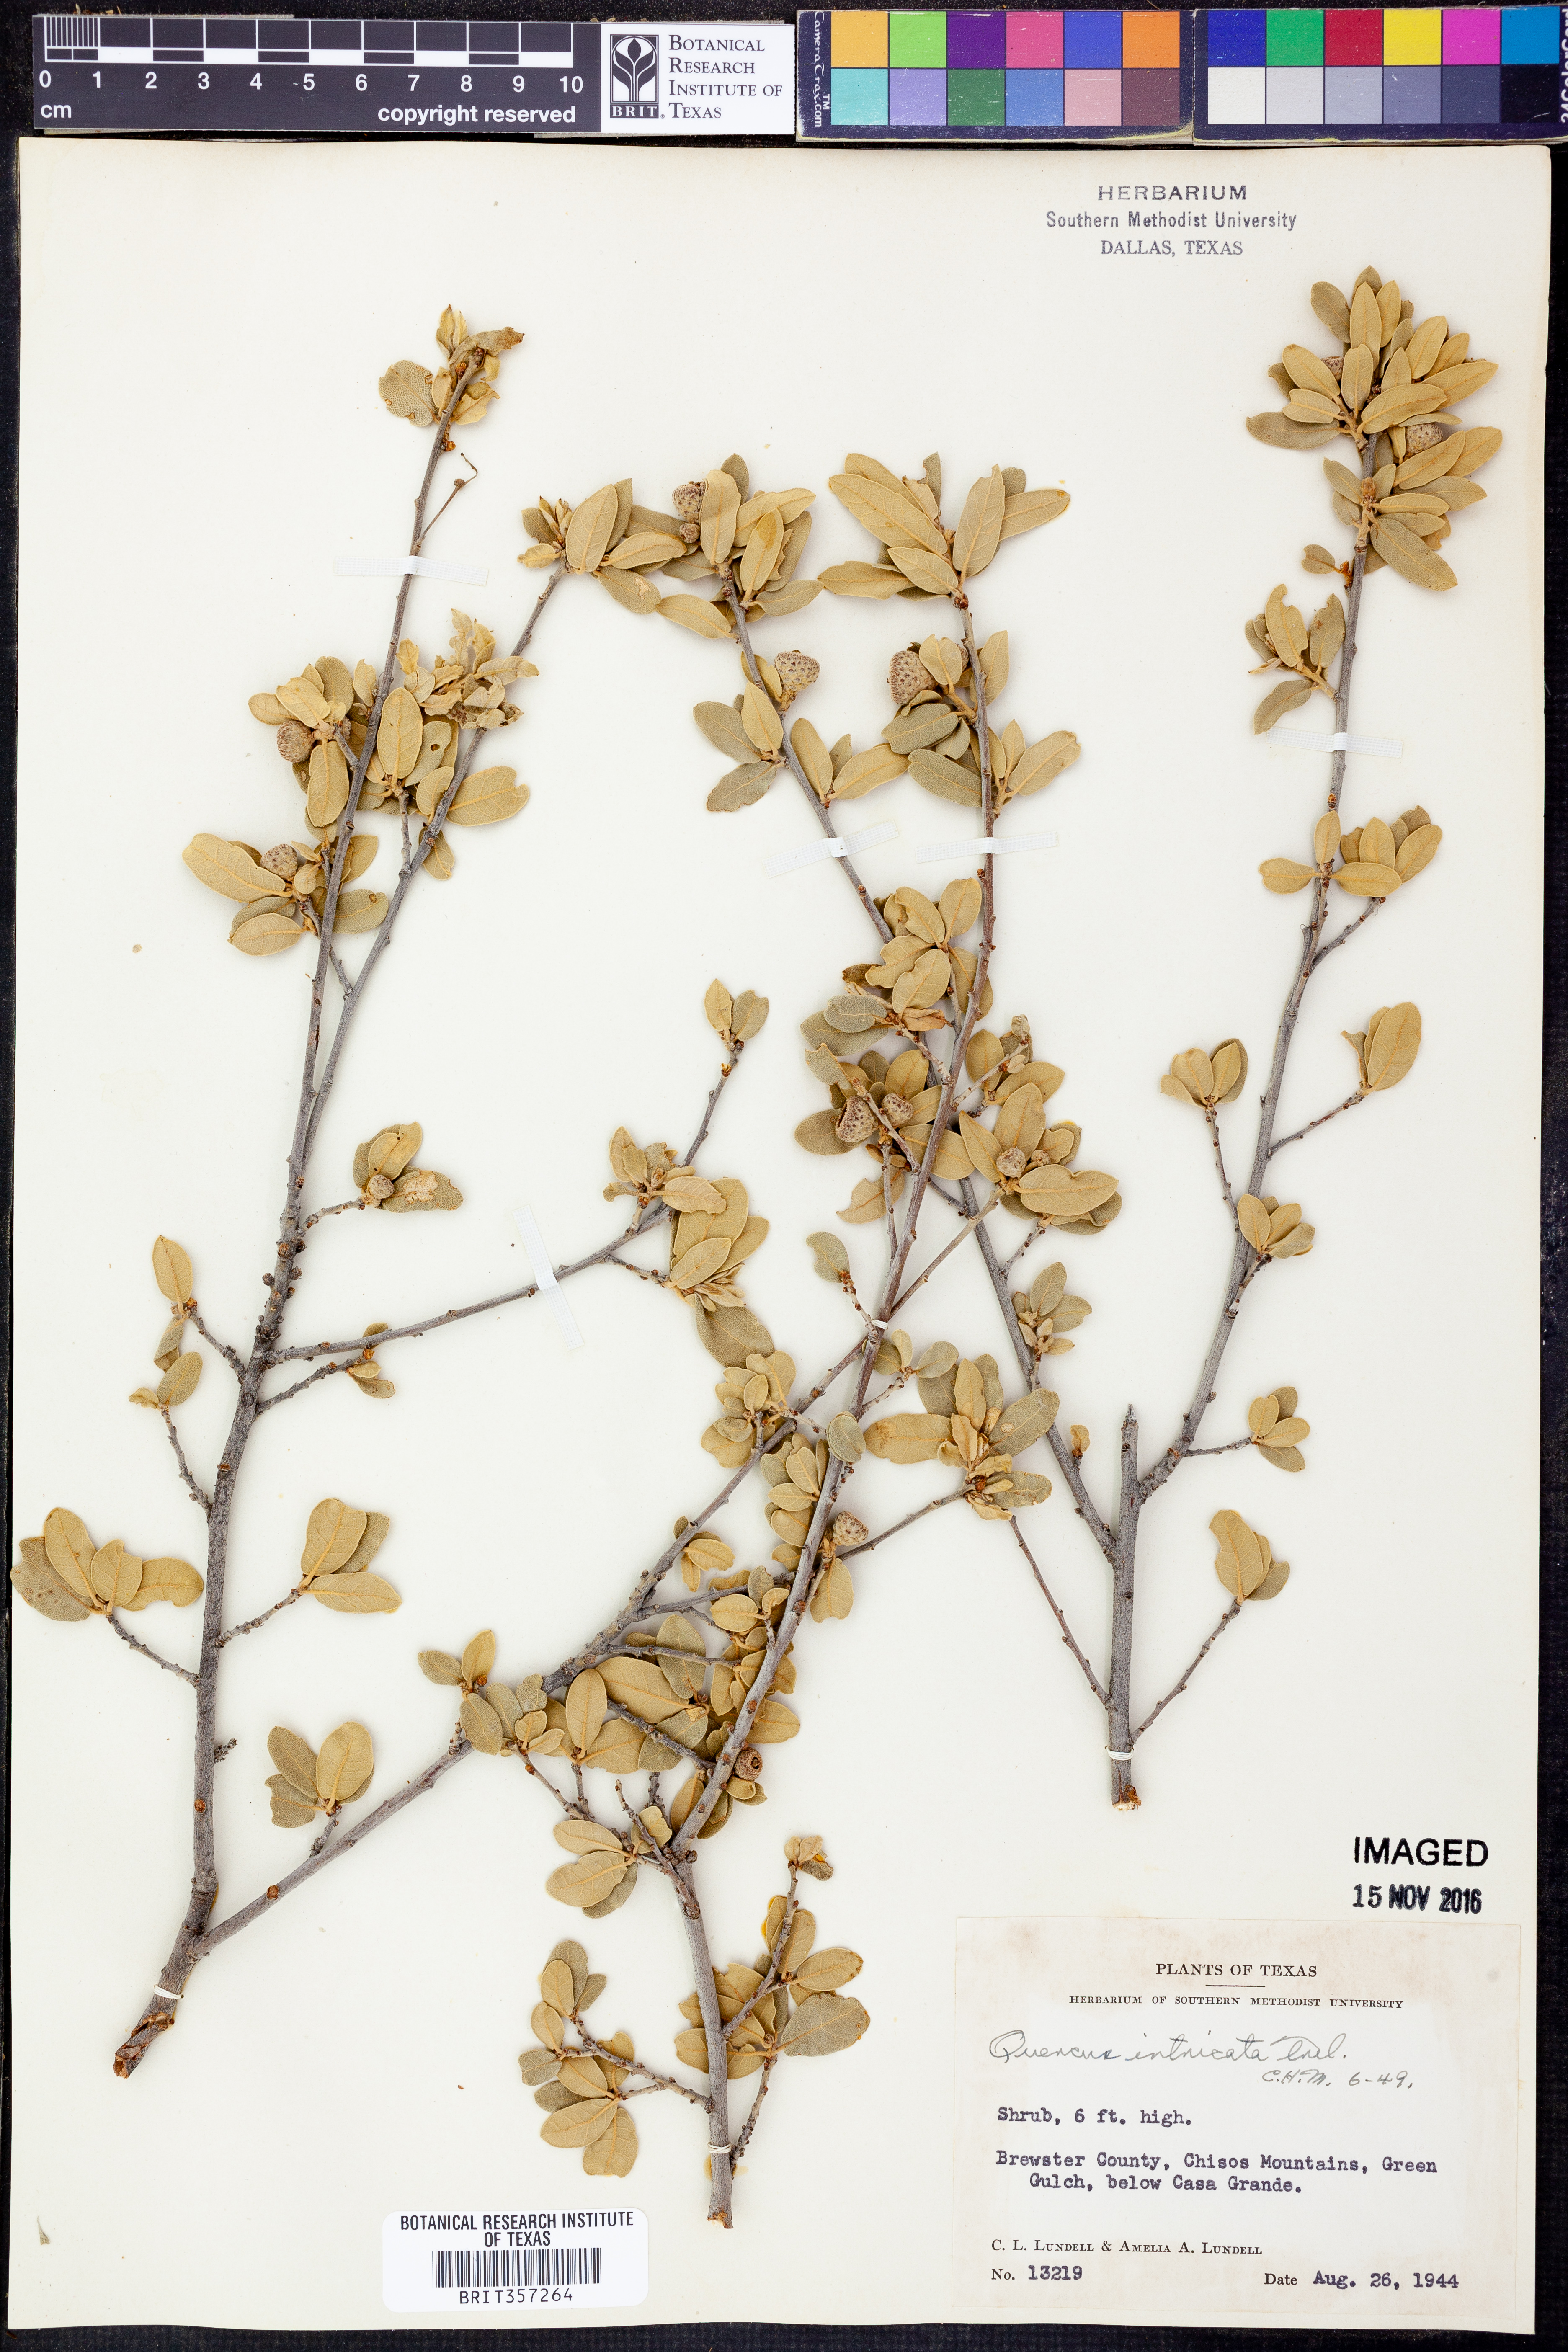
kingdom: Plantae
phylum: Tracheophyta
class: Magnoliopsida
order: Fagales
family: Fagaceae
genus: Quercus
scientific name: Quercus intricata
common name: Dwarf oak
